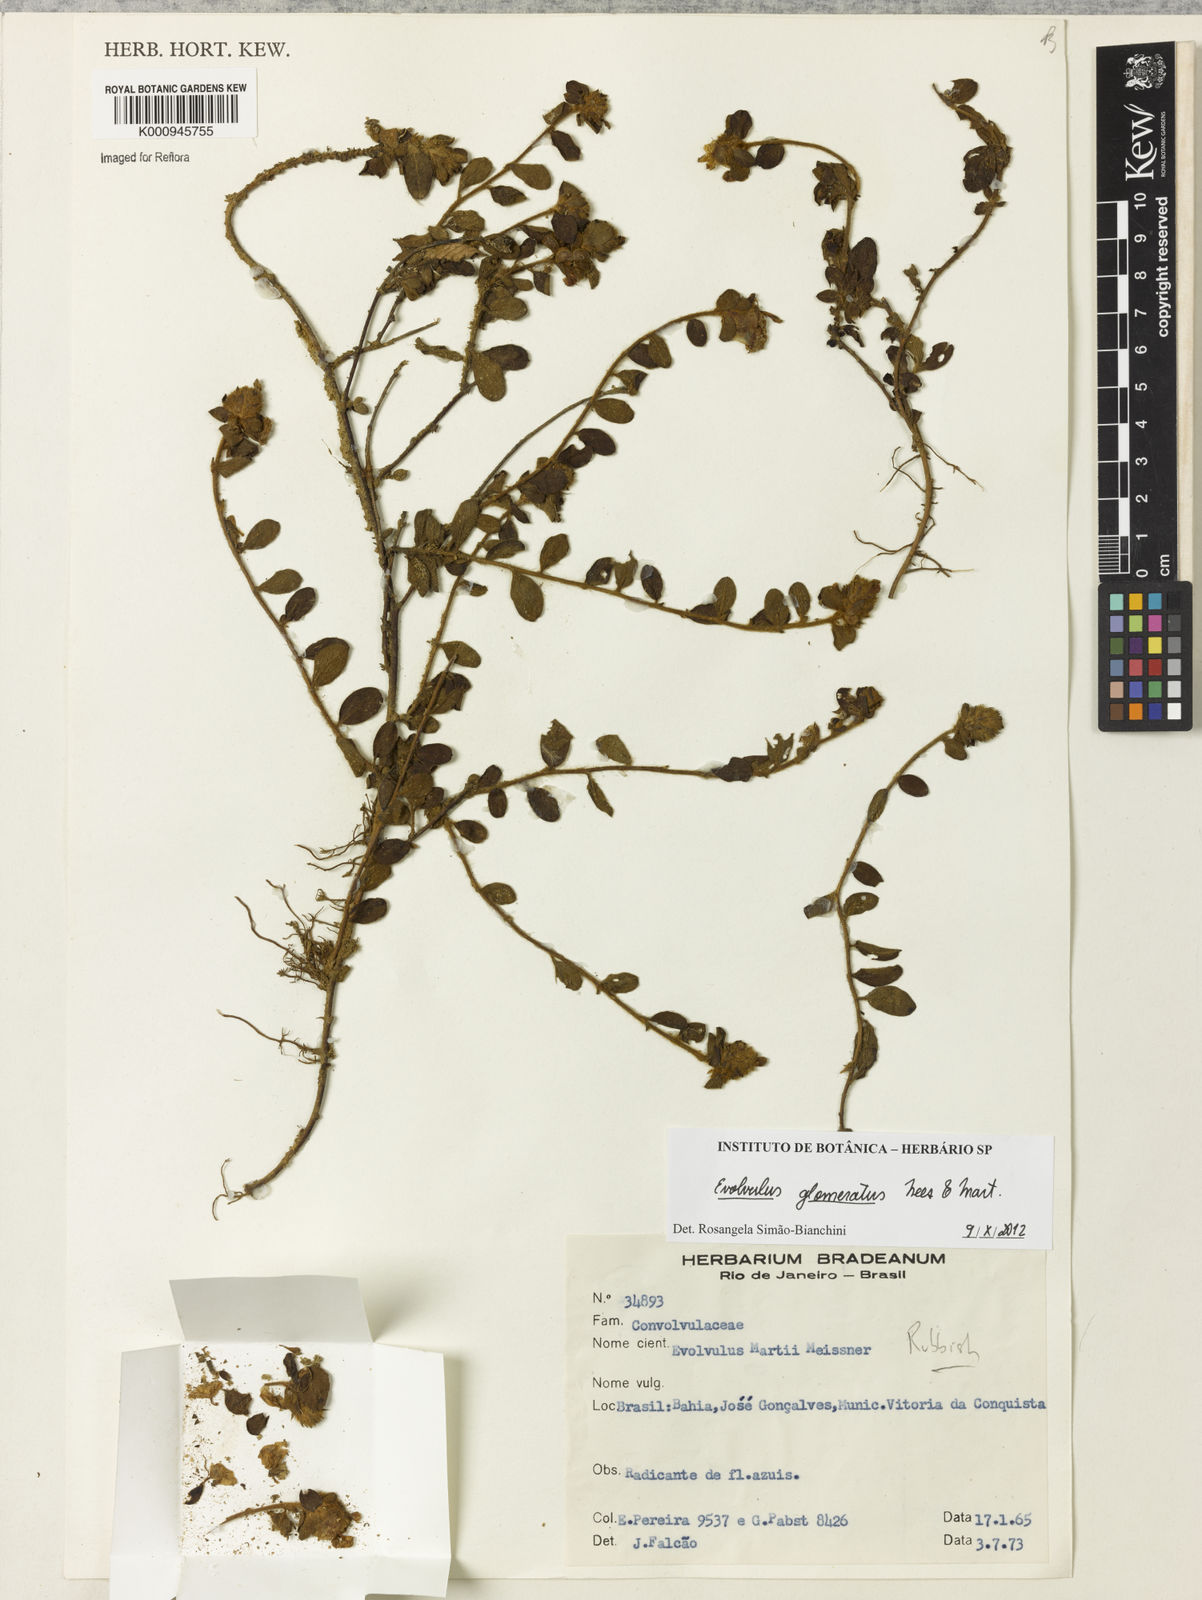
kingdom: Plantae
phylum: Tracheophyta
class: Magnoliopsida
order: Solanales
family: Convolvulaceae
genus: Evolvulus
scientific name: Evolvulus glomeratus
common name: Brazilian dwarf morning-glory
